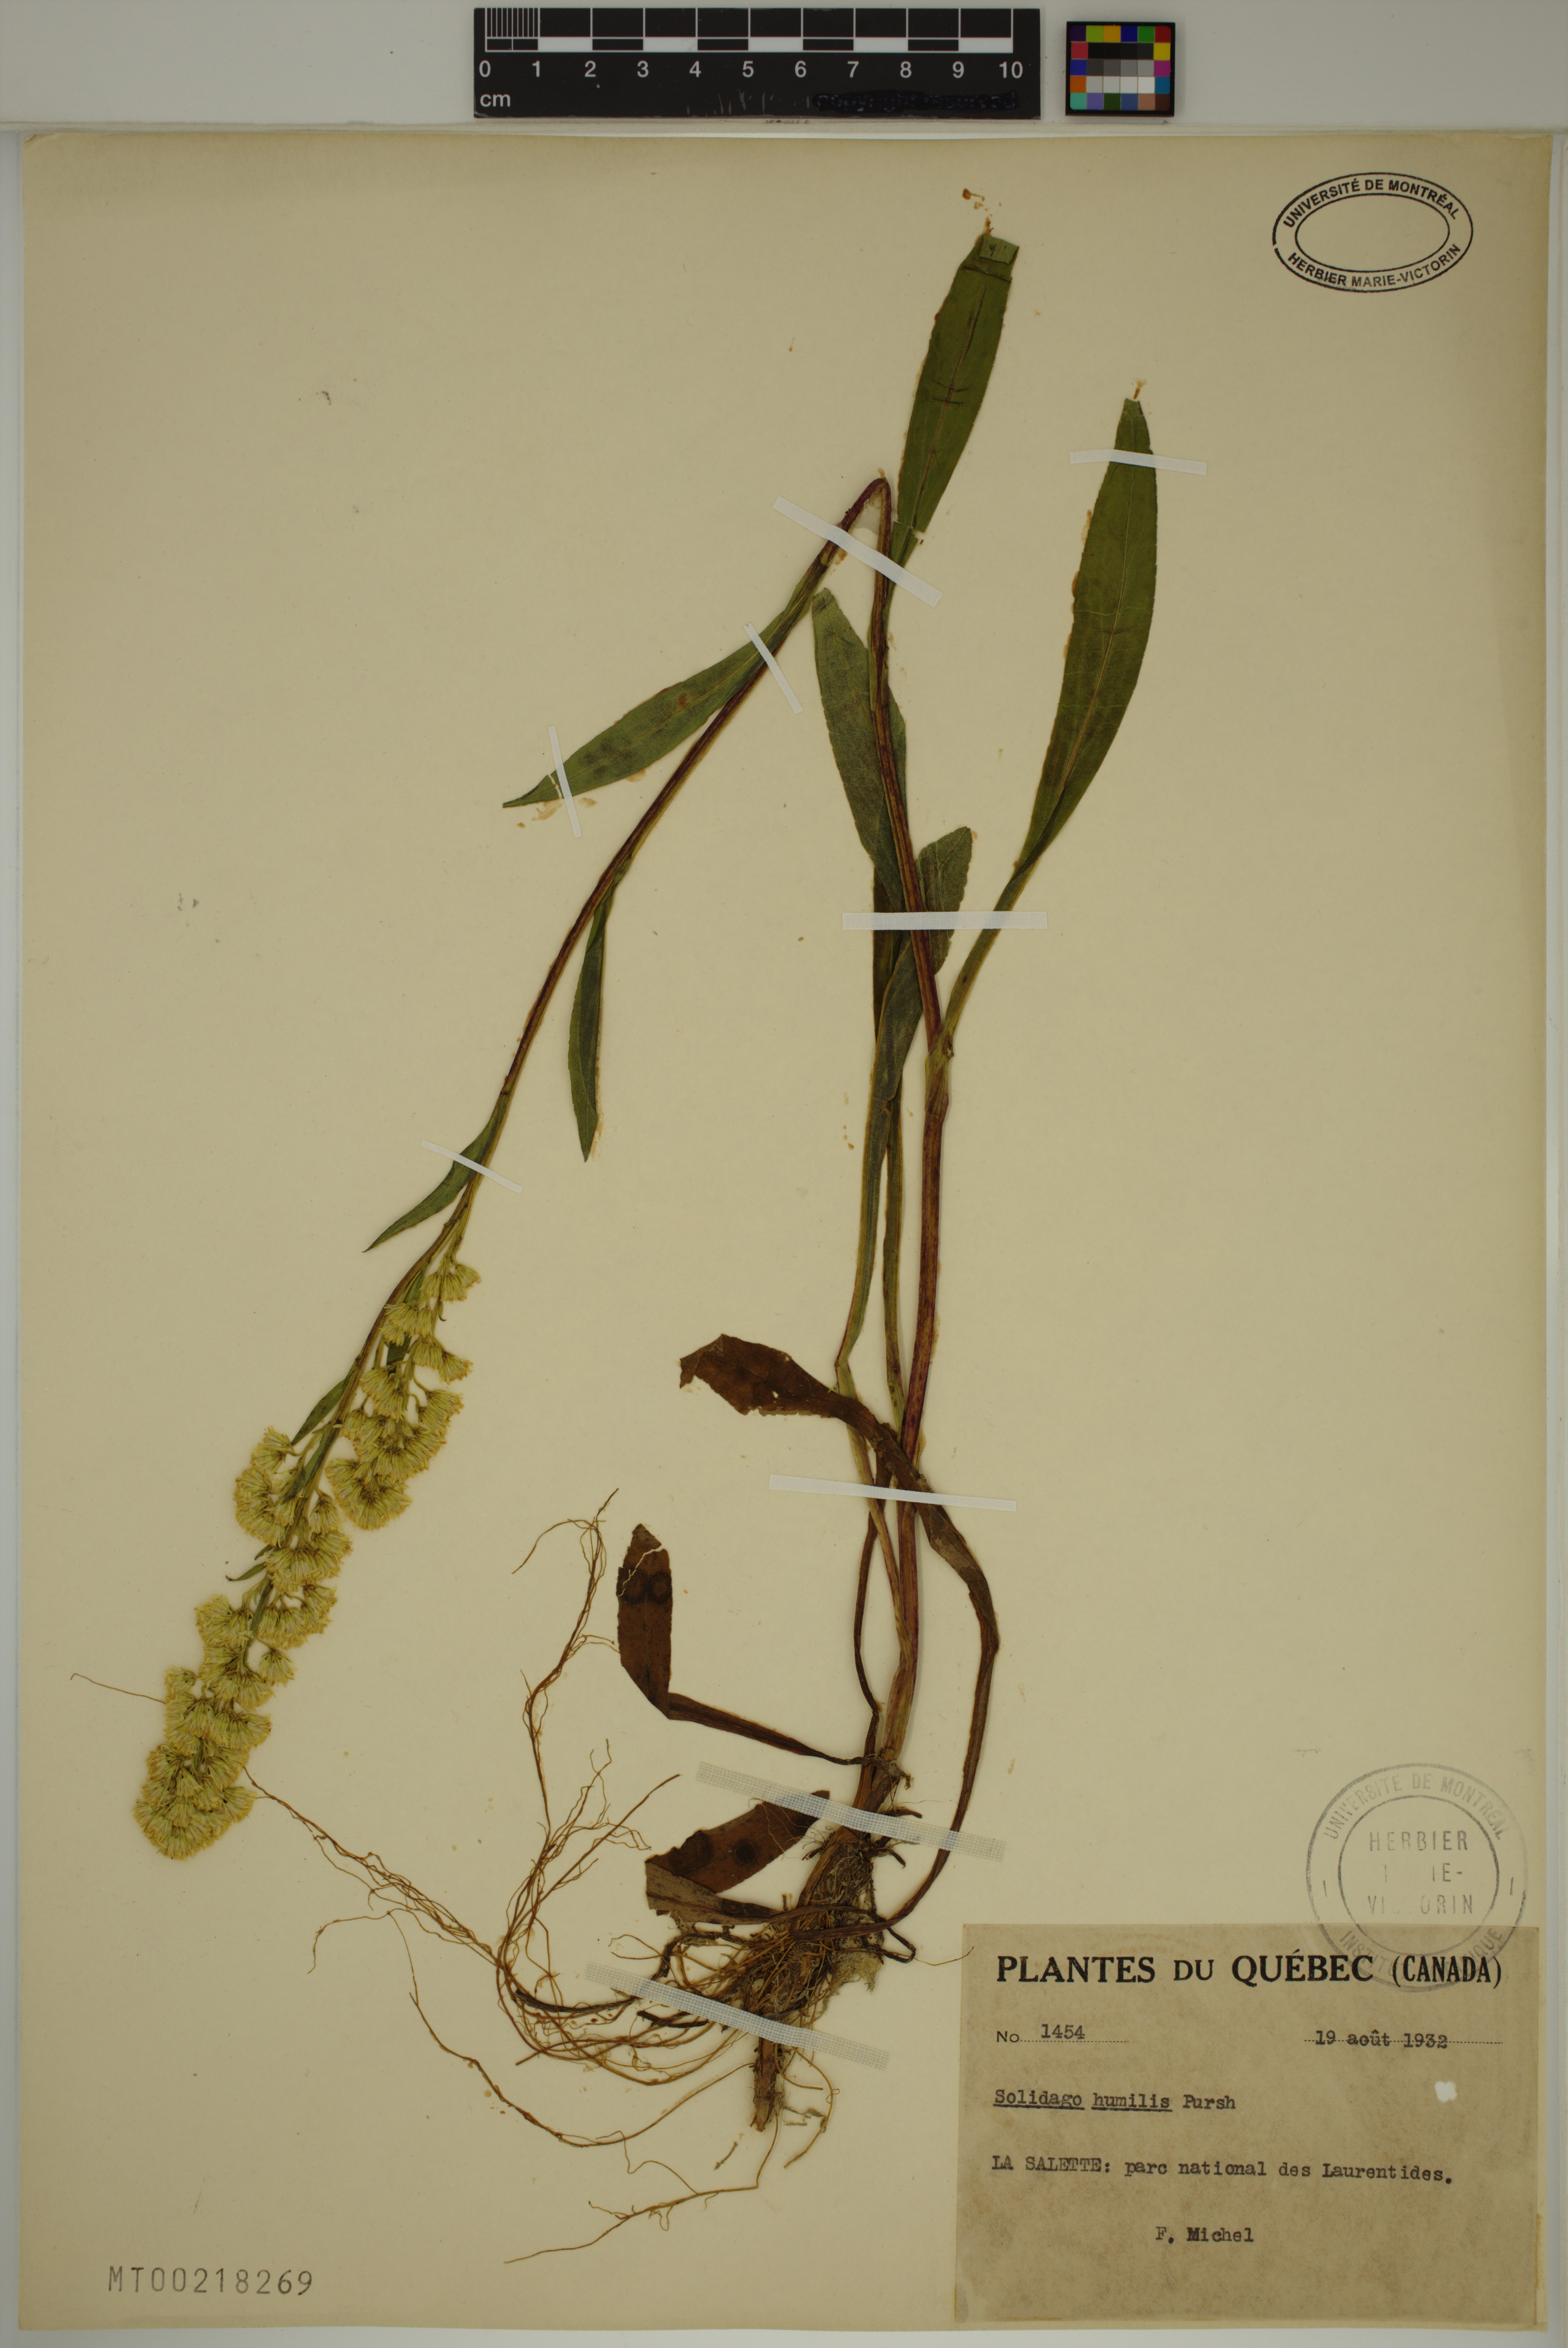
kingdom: Plantae
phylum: Tracheophyta
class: Magnoliopsida
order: Asterales
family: Asteraceae
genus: Solidago
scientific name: Solidago uliginosa
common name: Bog goldenrod
